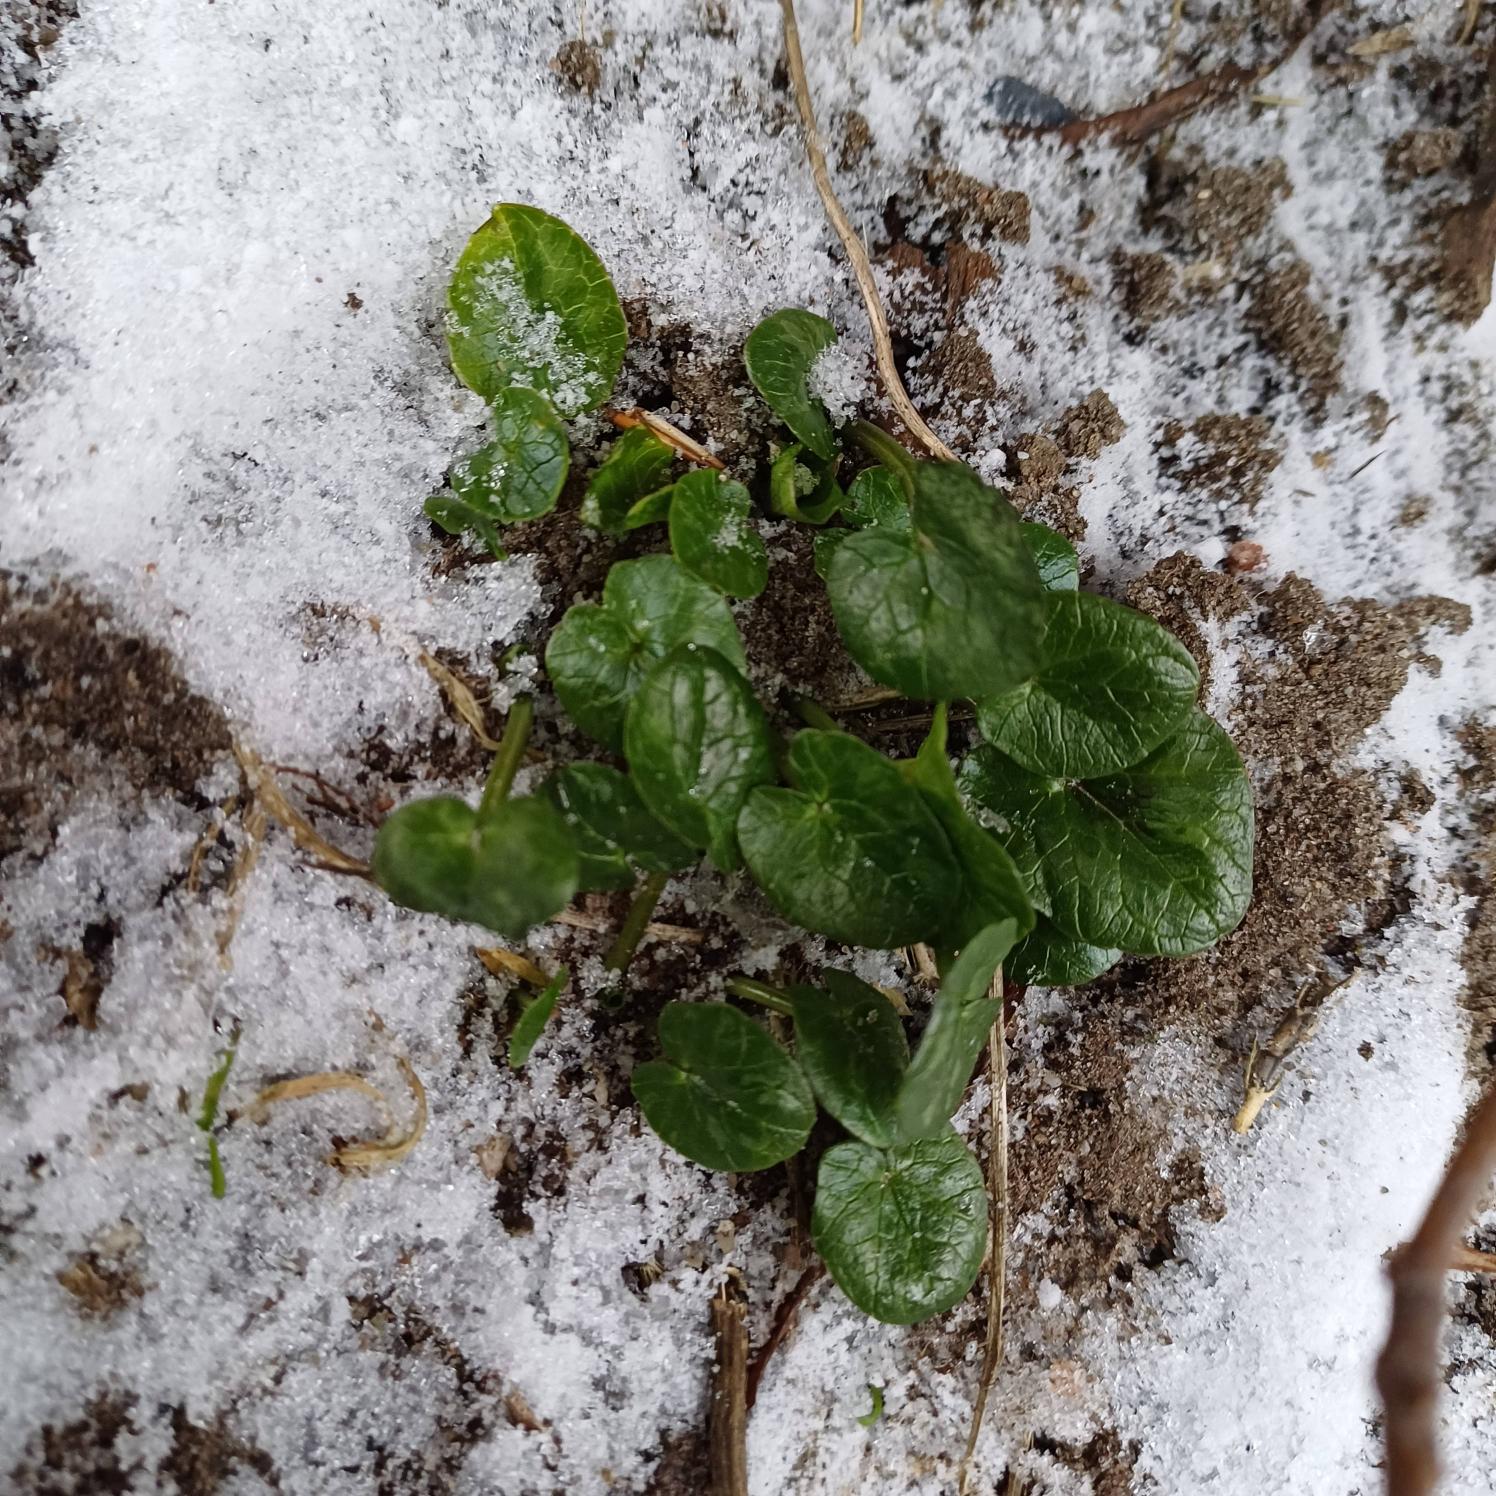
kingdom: Plantae
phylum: Tracheophyta
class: Magnoliopsida
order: Ranunculales
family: Ranunculaceae
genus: Ficaria
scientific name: Ficaria verna
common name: Vorterod
